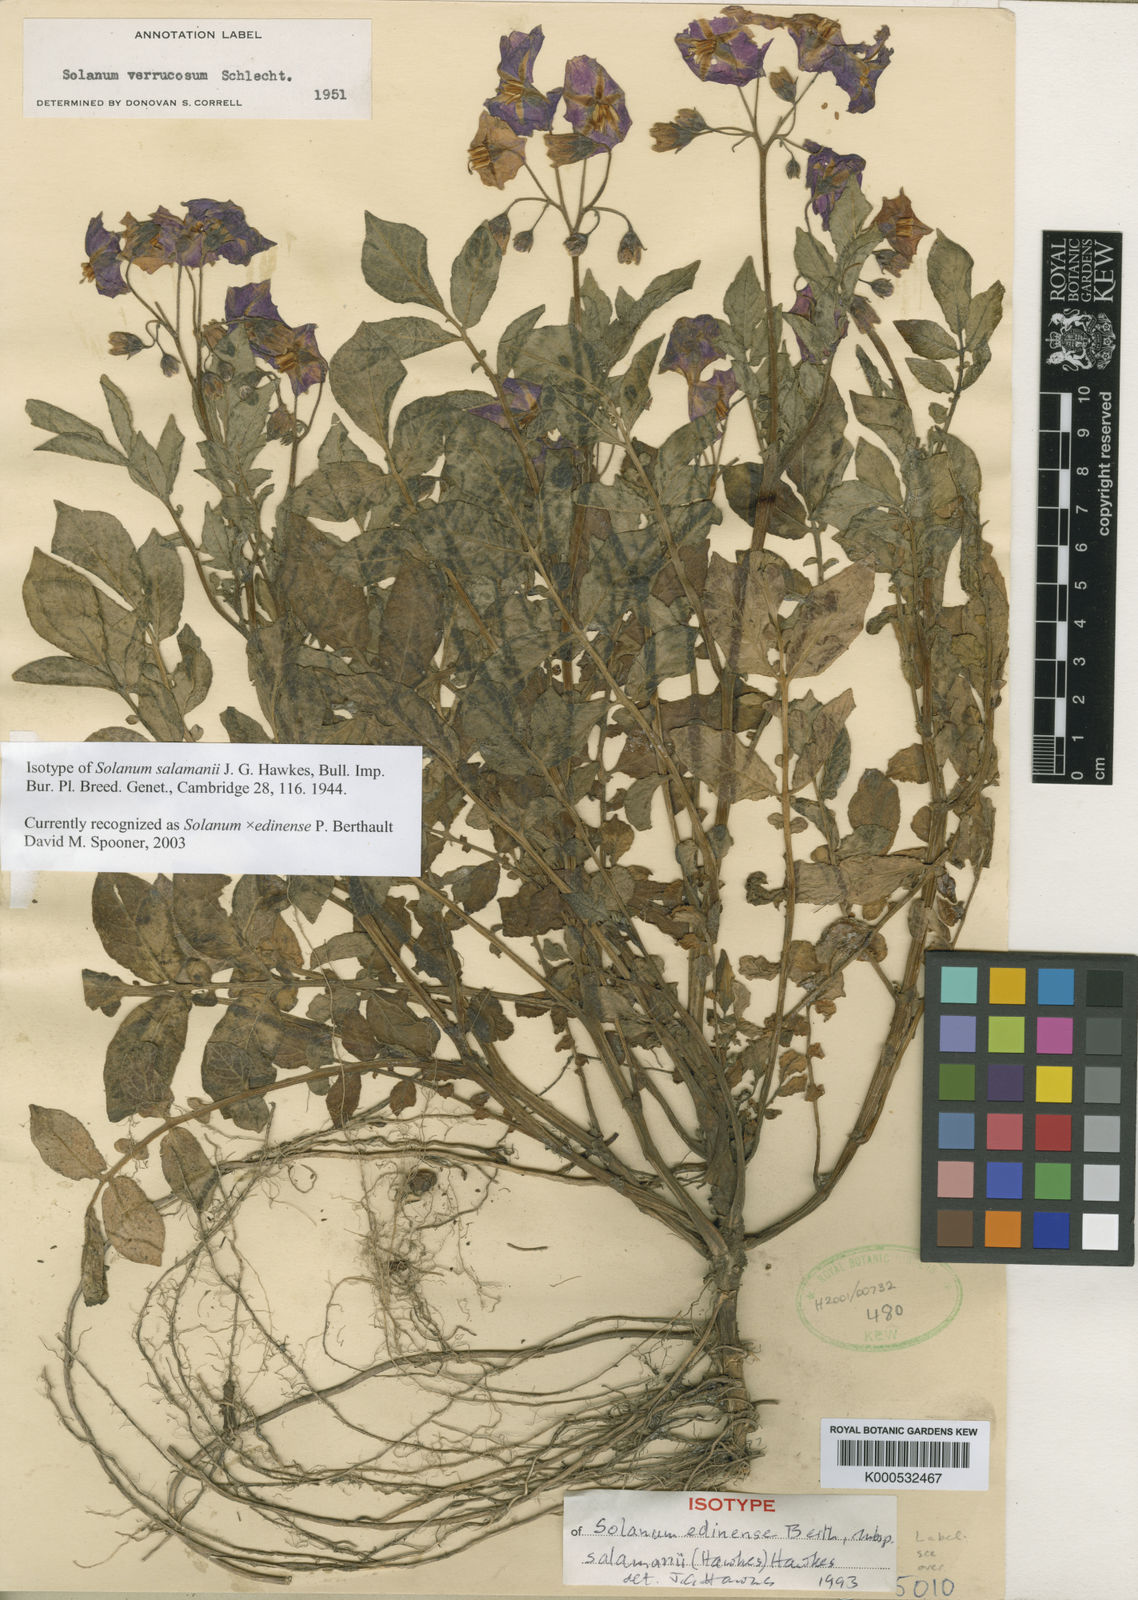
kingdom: Plantae
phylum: Tracheophyta
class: Magnoliopsida
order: Solanales
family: Solanaceae
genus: Solanum
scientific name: Solanum
